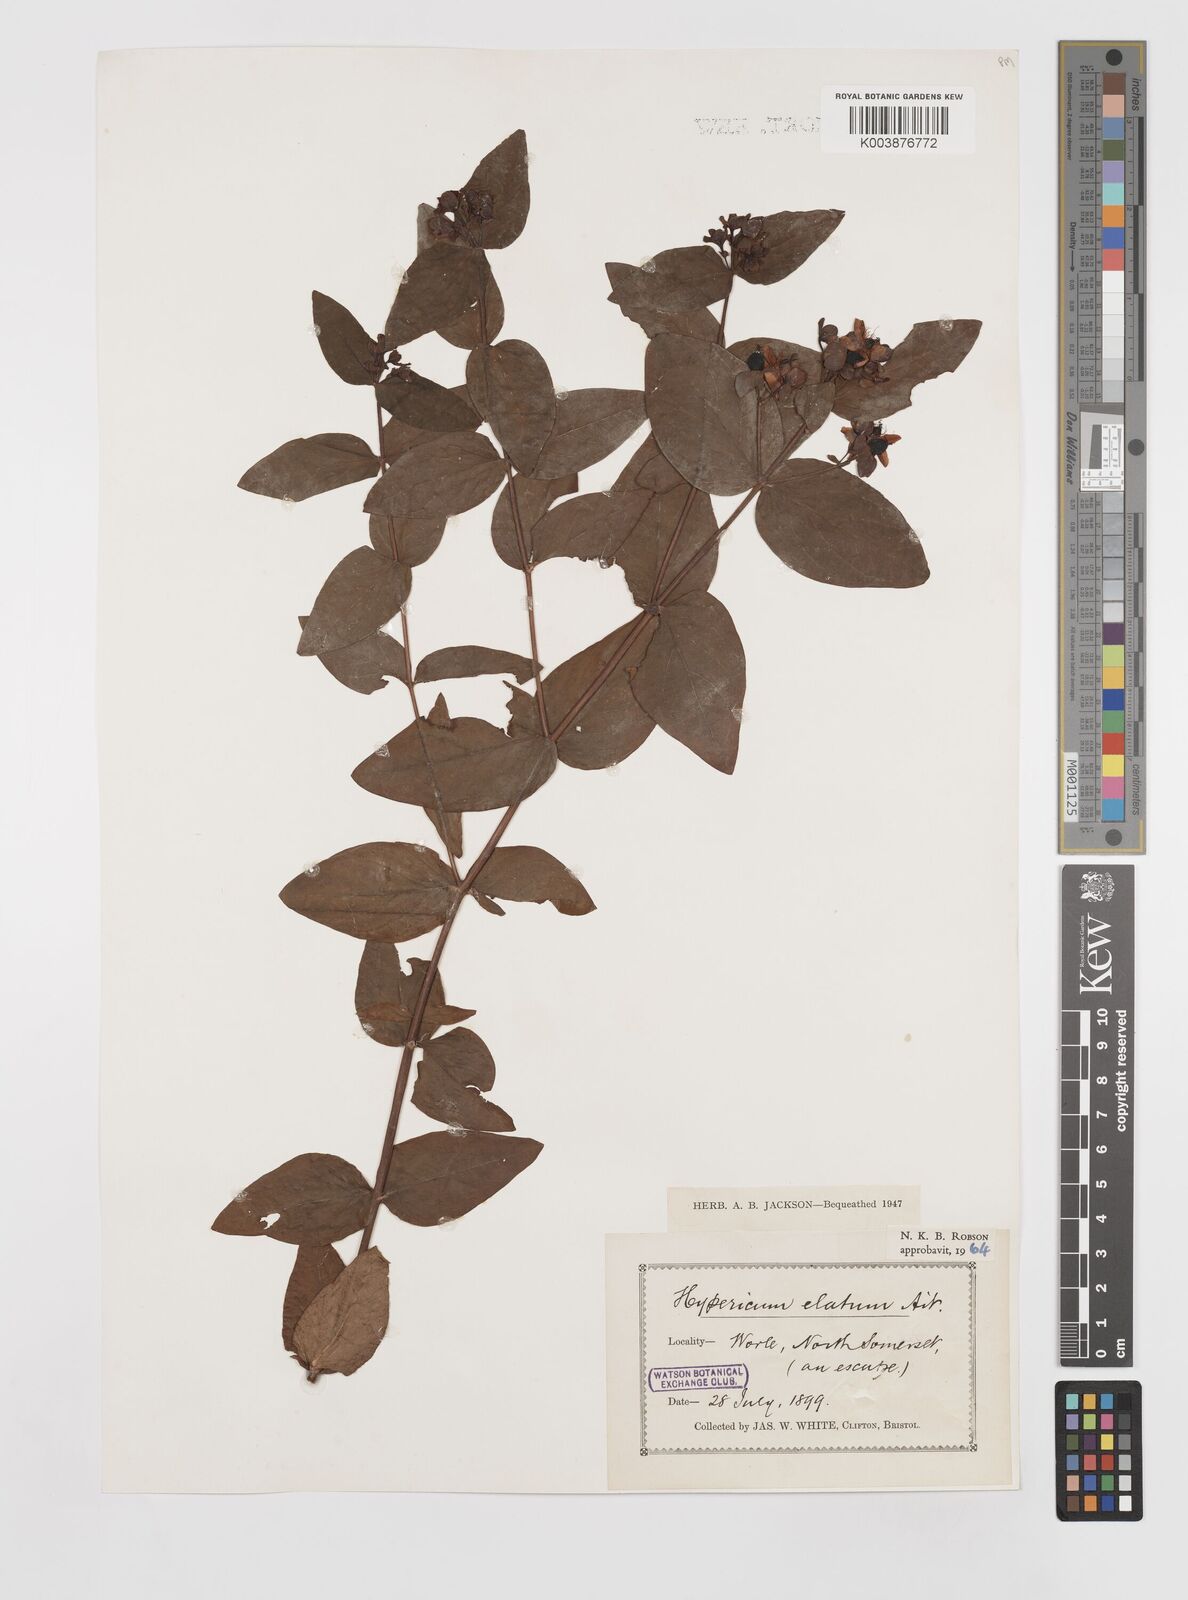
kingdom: Plantae
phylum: Tracheophyta
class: Magnoliopsida
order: Malpighiales
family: Hypericaceae
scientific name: Hypericaceae
